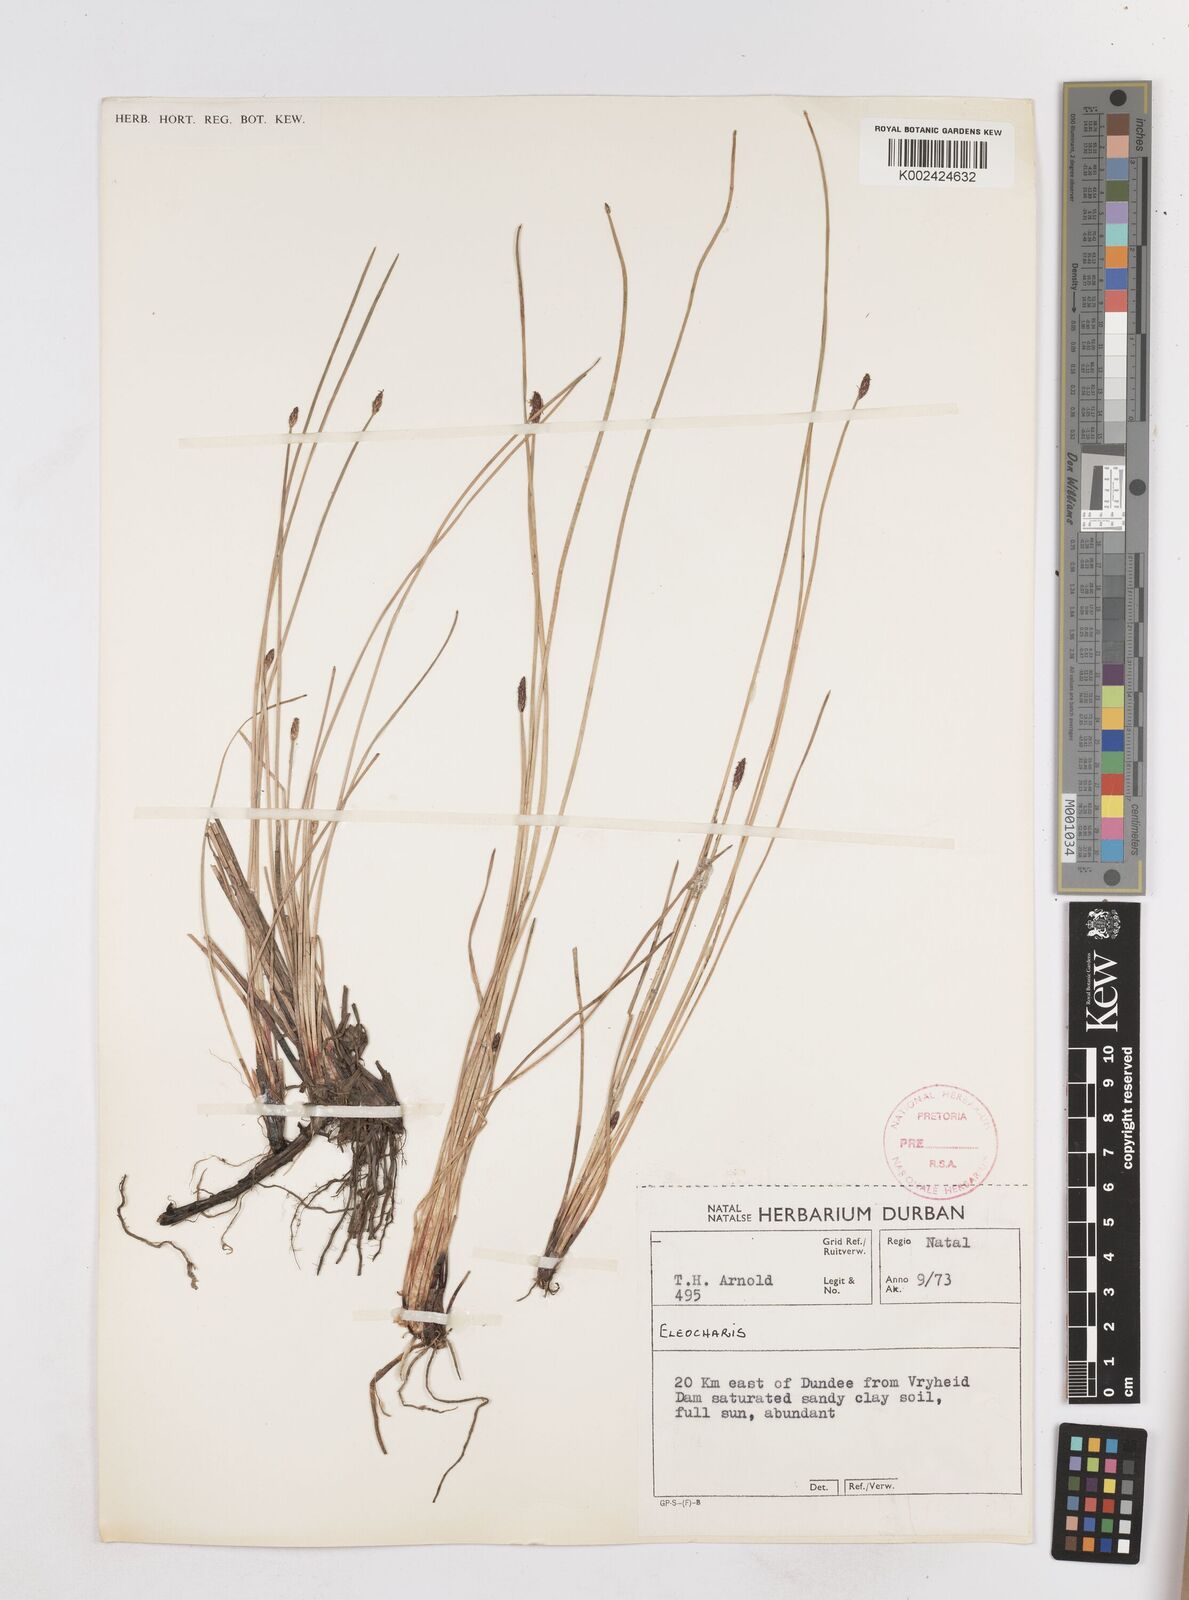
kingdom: Plantae
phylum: Tracheophyta
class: Liliopsida
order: Poales
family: Cyperaceae
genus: Eleocharis
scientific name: Eleocharis
